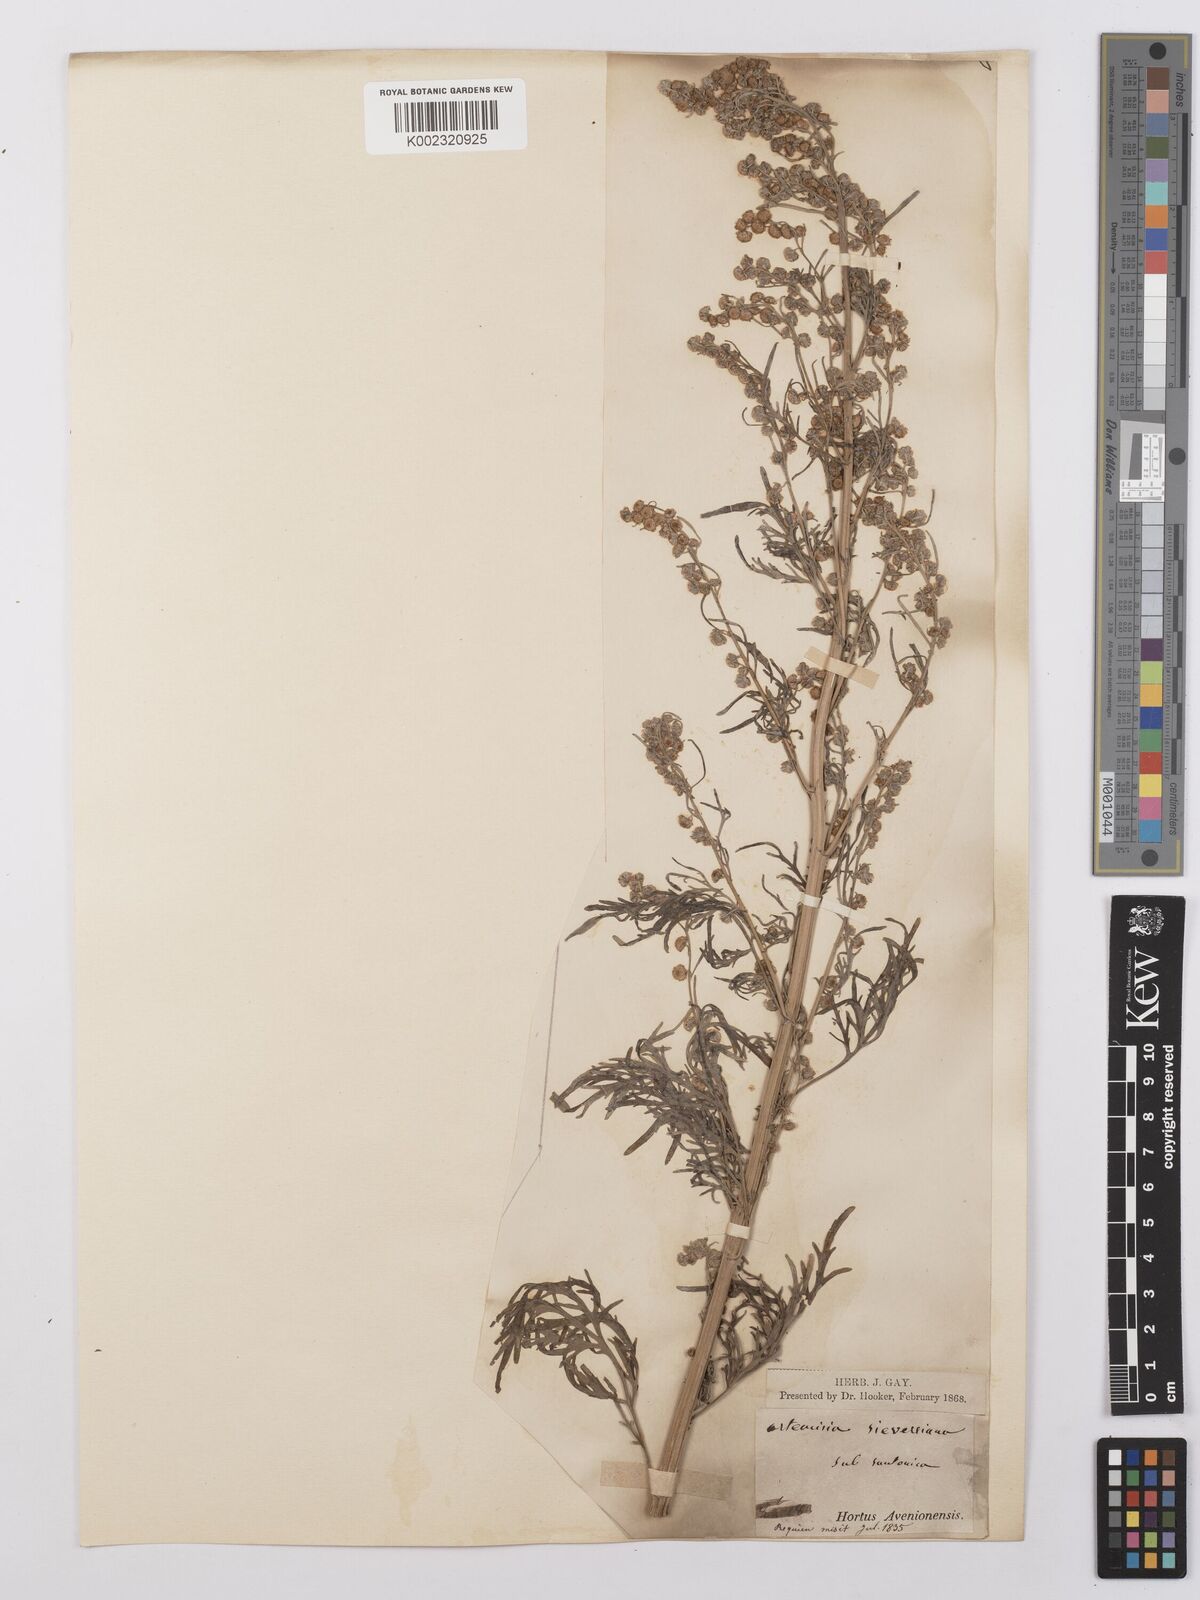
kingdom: Plantae
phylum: Tracheophyta
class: Magnoliopsida
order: Asterales
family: Asteraceae
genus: Artemisia
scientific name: Artemisia sieversiana
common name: Sieversian wormwood
